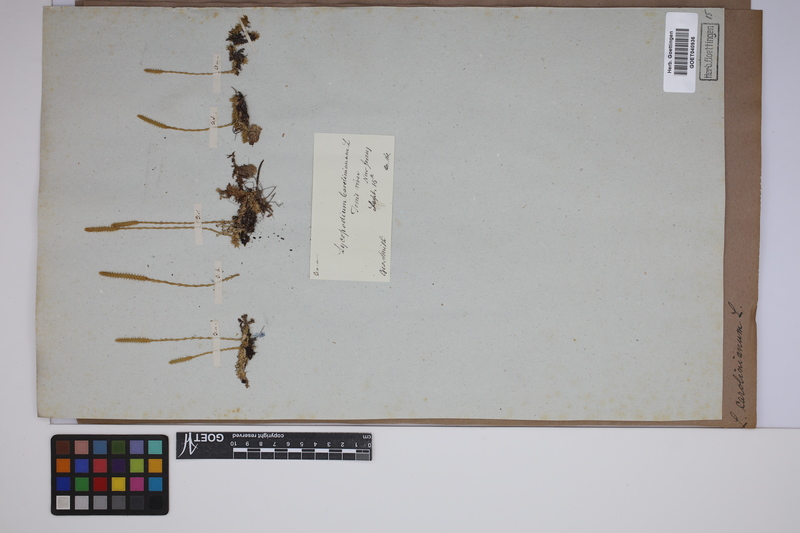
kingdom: Plantae
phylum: Tracheophyta
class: Lycopodiopsida
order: Lycopodiales
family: Lycopodiaceae
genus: Brownseya
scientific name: Brownseya serpentina
